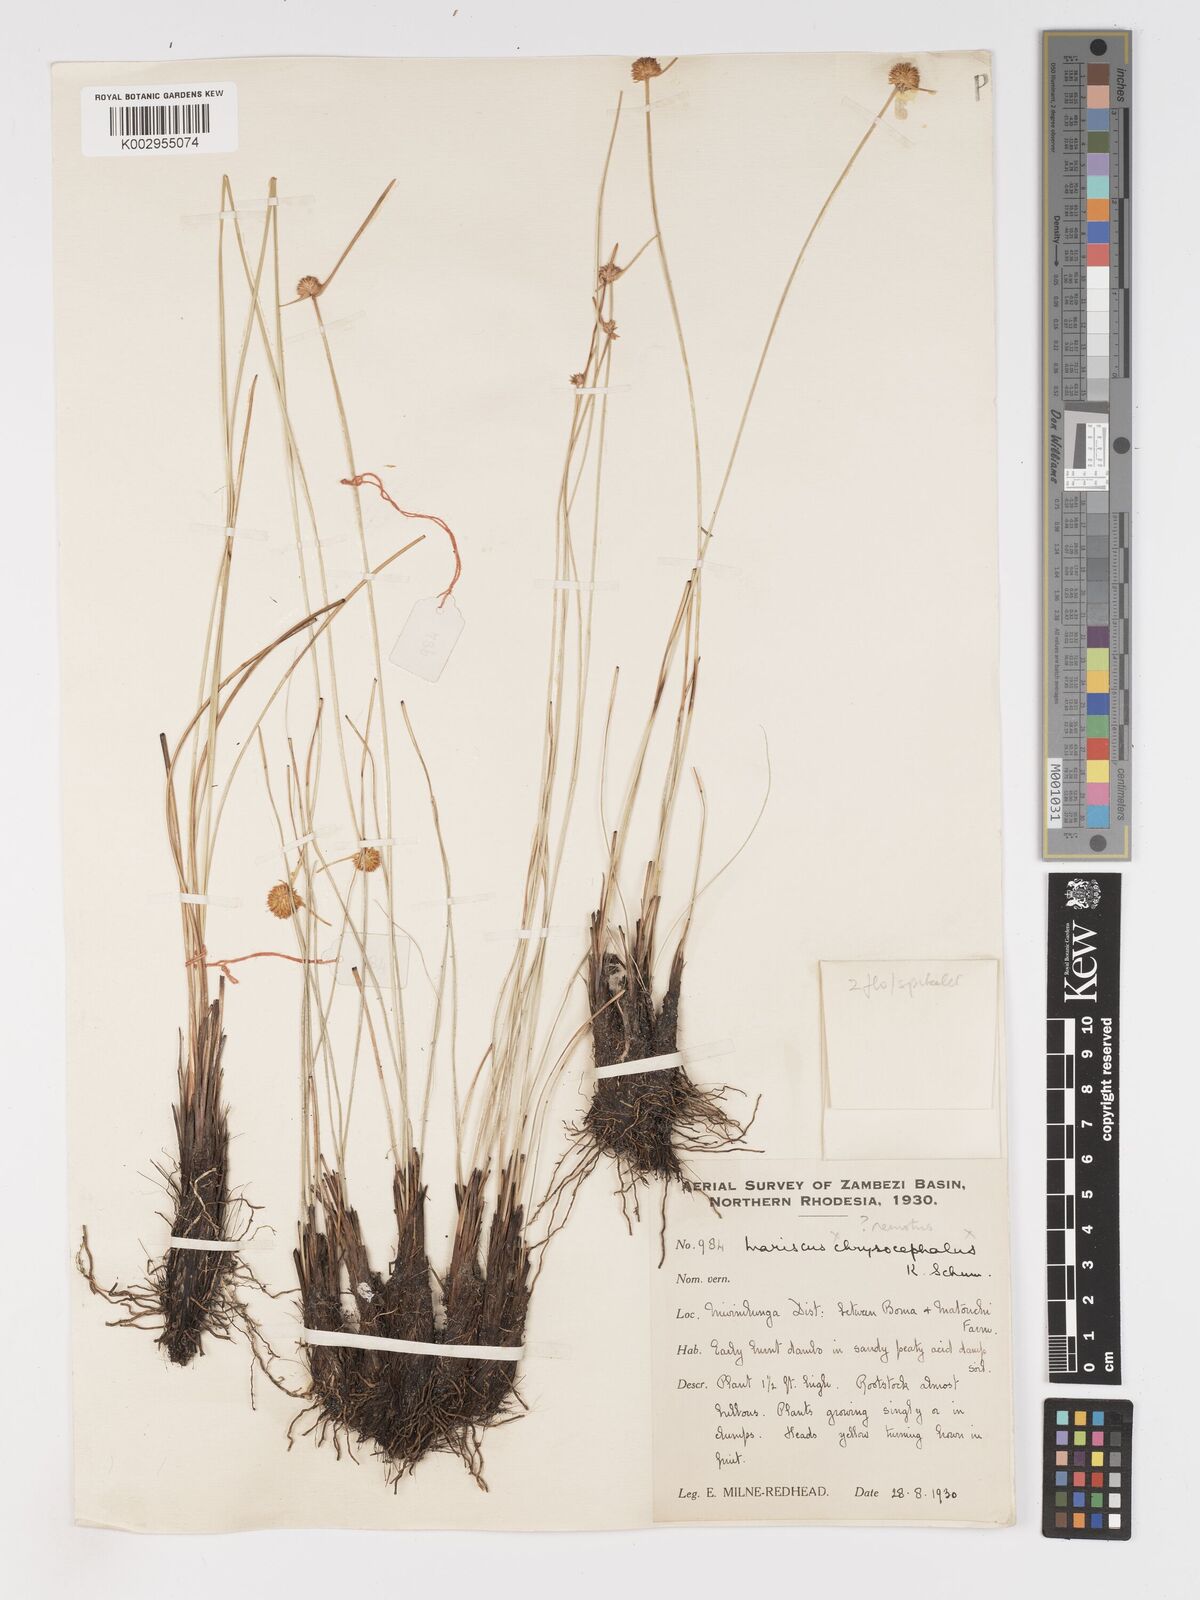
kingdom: Plantae
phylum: Tracheophyta
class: Liliopsida
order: Poales
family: Cyperaceae
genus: Cyperus
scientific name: Cyperus remotus
